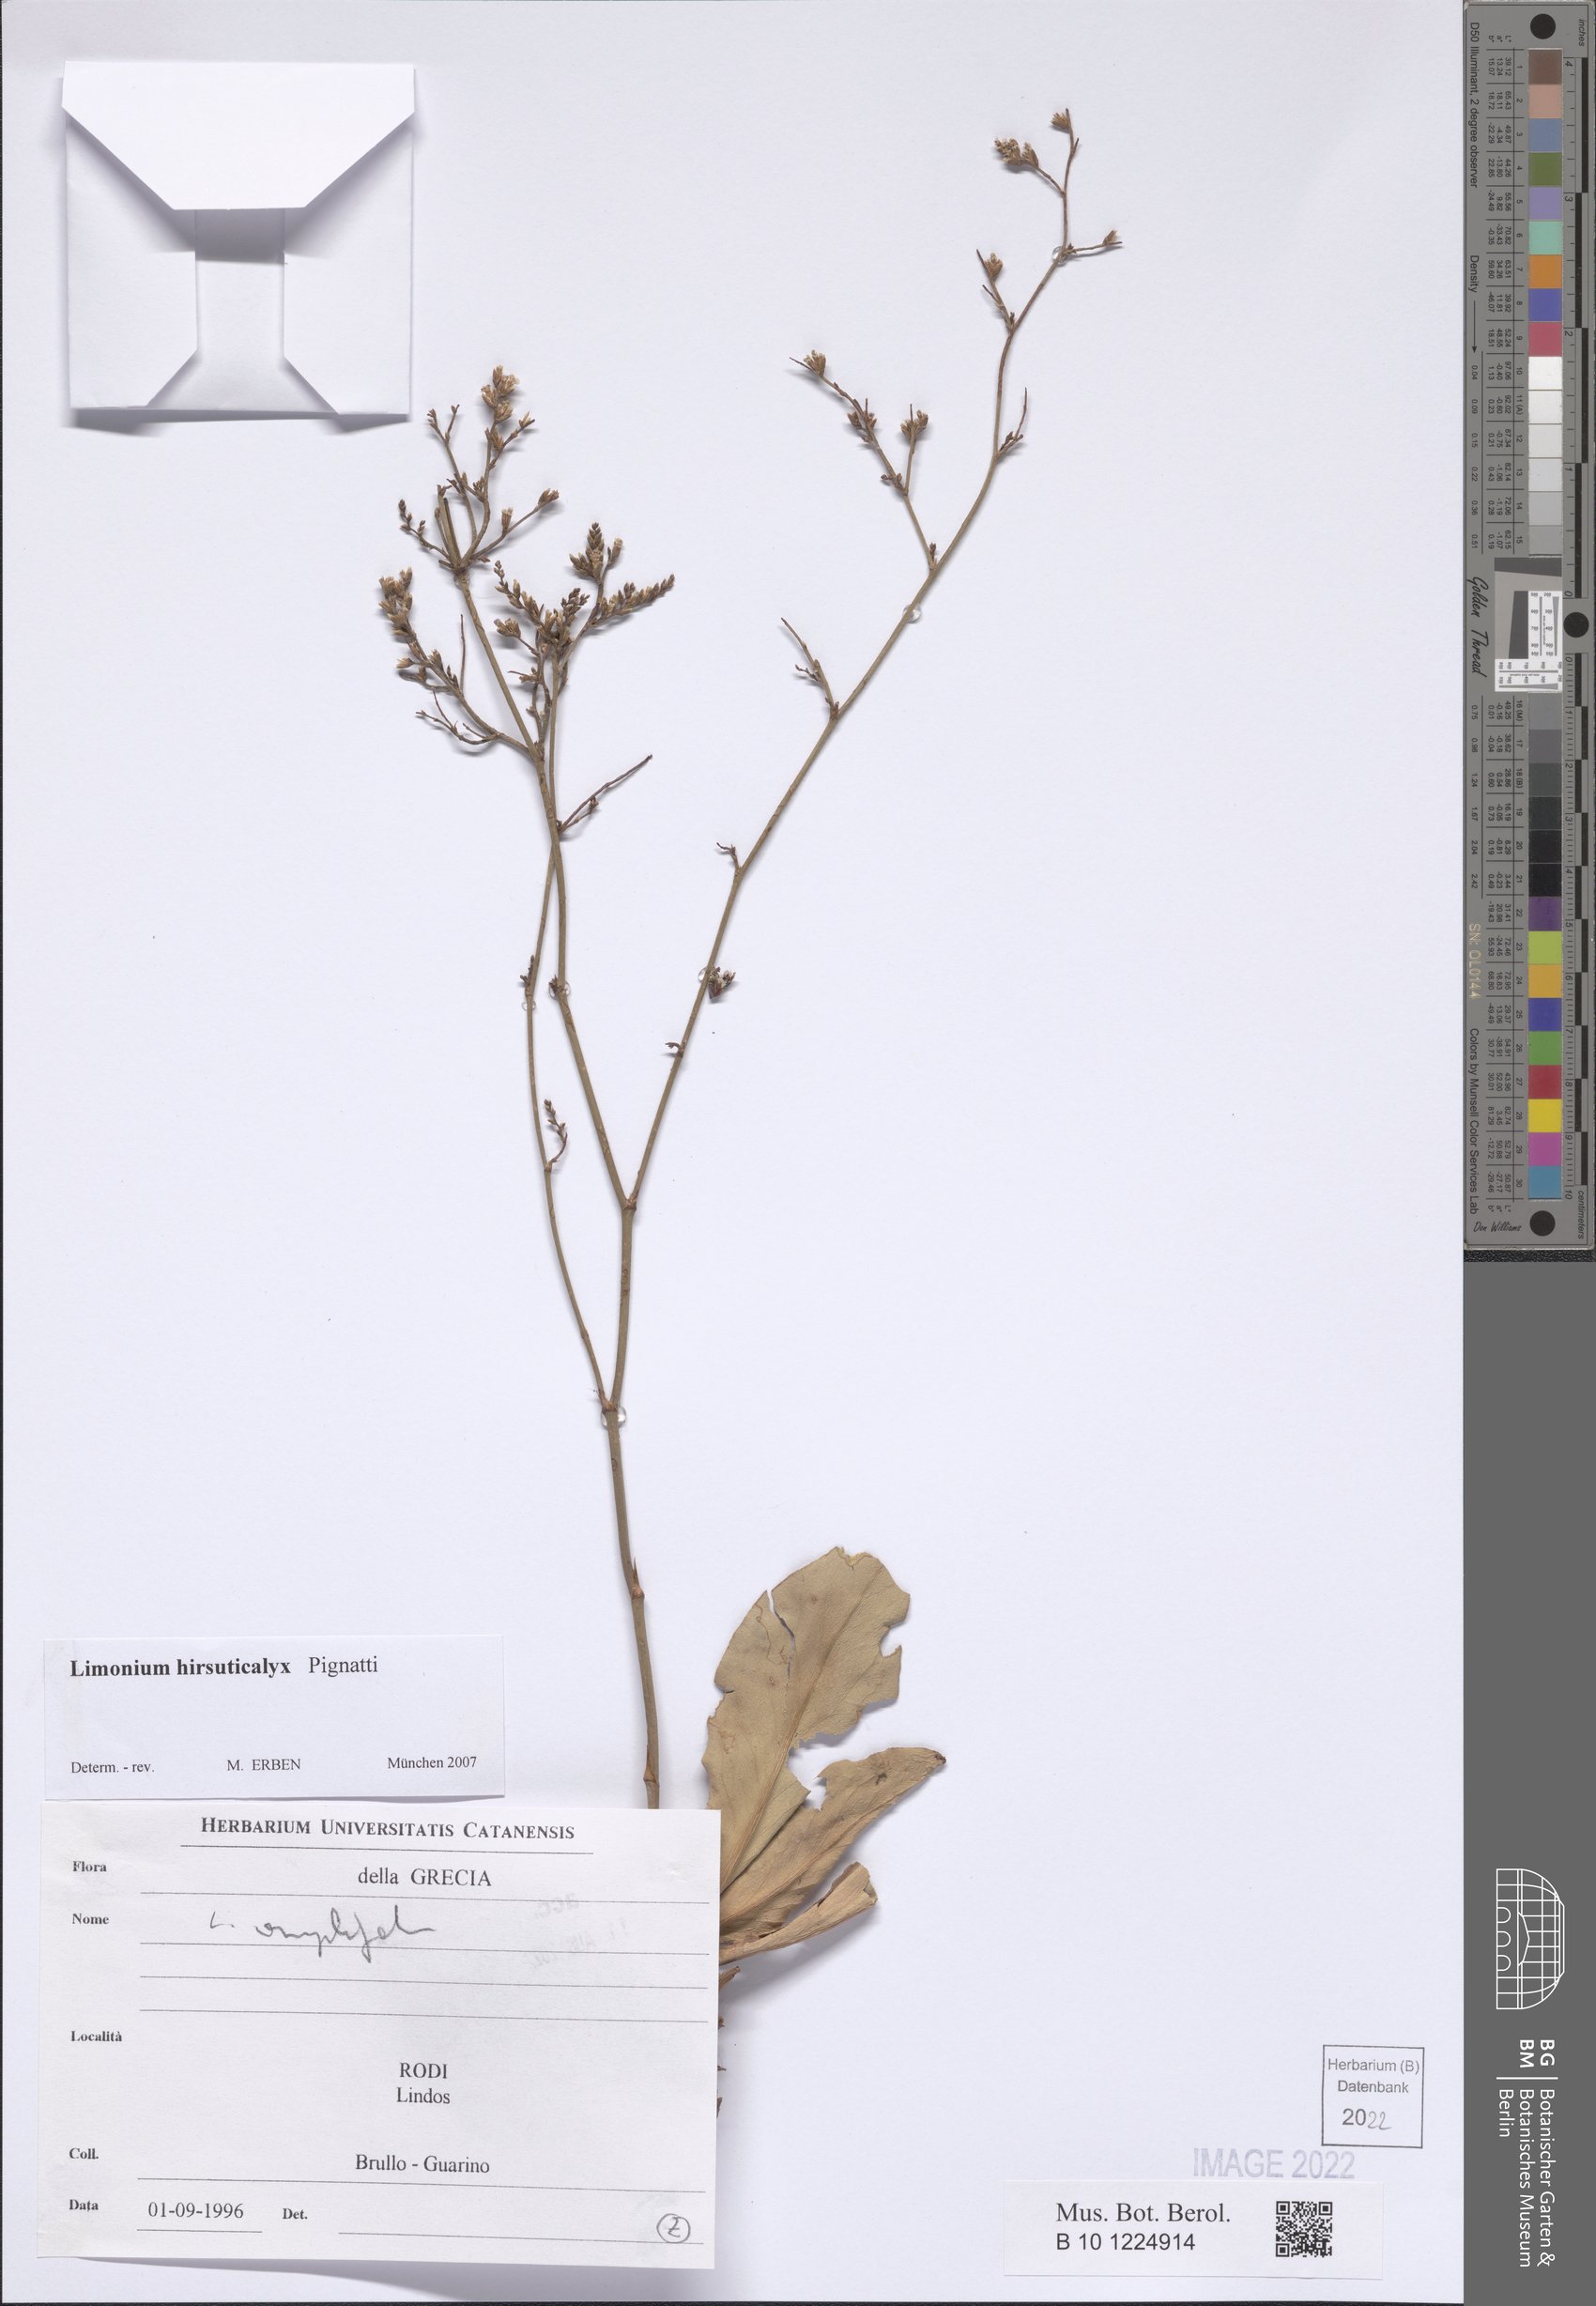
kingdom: Plantae
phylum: Tracheophyta
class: Magnoliopsida
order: Caryophyllales
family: Plumbaginaceae
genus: Limonium
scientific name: Limonium hirsuticalyx
